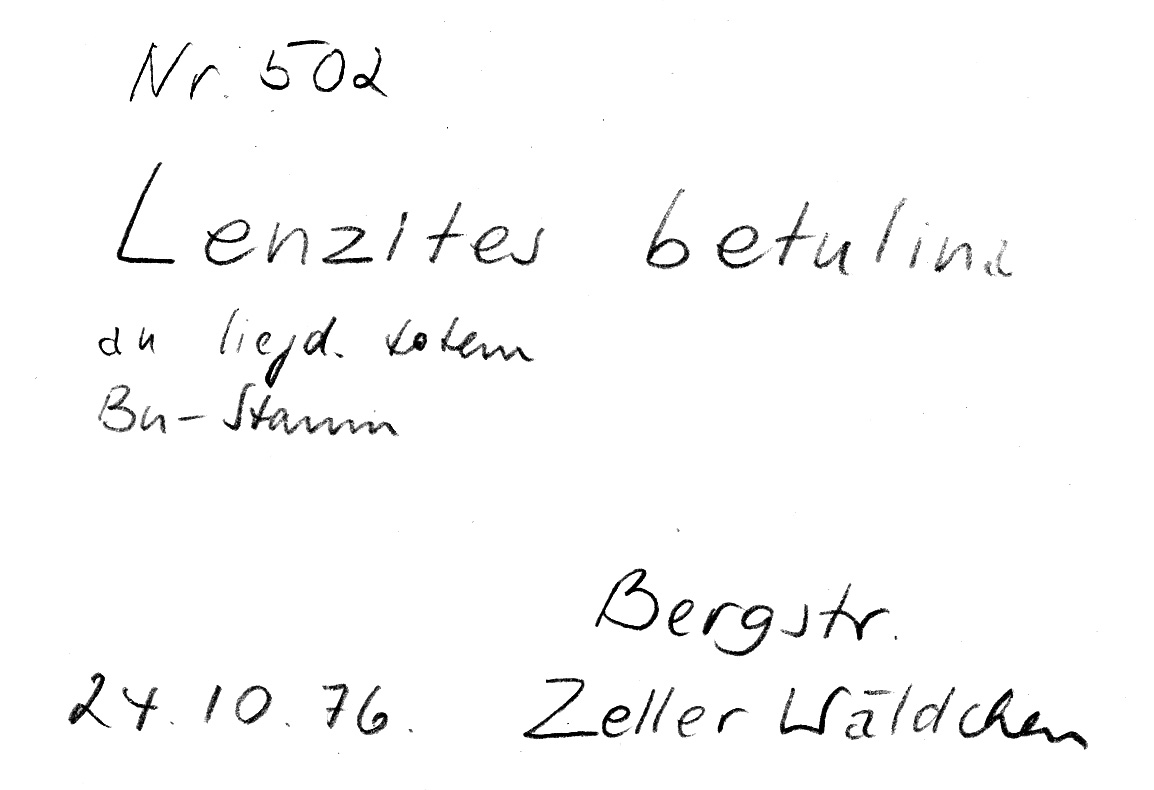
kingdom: Fungi
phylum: Basidiomycota
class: Agaricomycetes
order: Polyporales
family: Polyporaceae
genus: Lenzites
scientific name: Lenzites betulinus
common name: Birch mazegill
